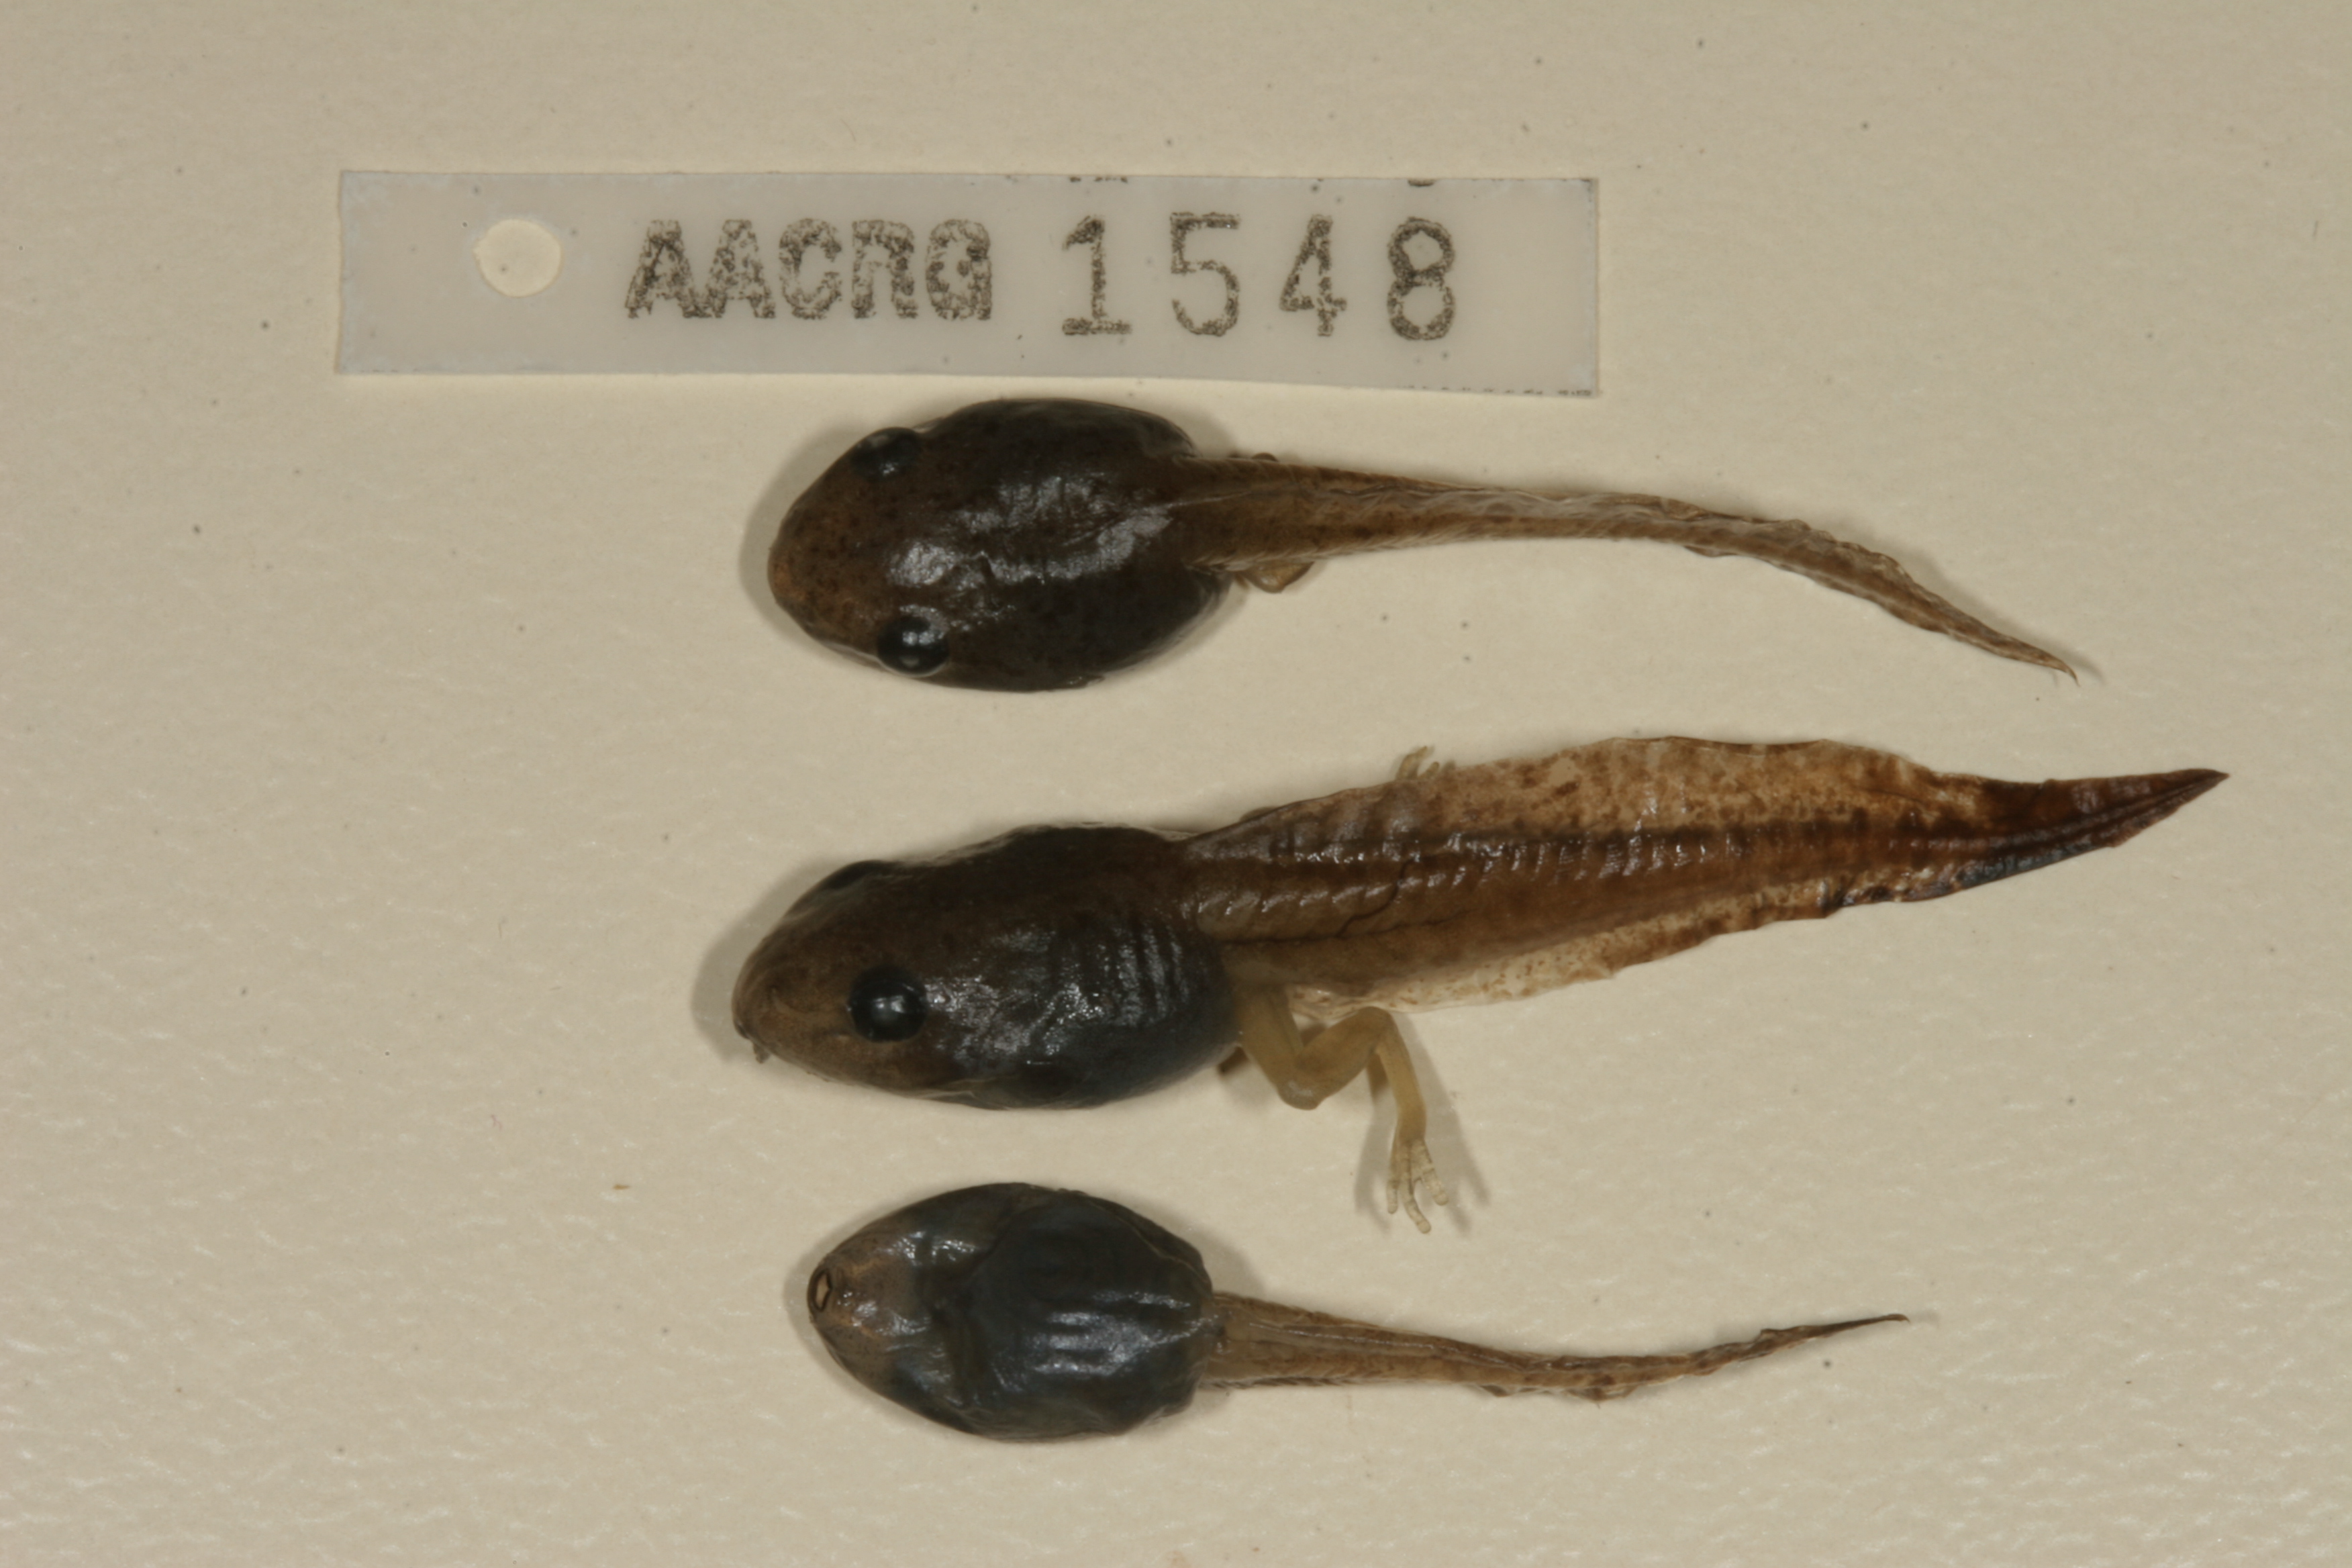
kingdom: Animalia
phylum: Chordata
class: Amphibia
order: Anura
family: Hyperoliidae
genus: Hyperolius
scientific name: Hyperolius marmoratus
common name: Painted reed frog
